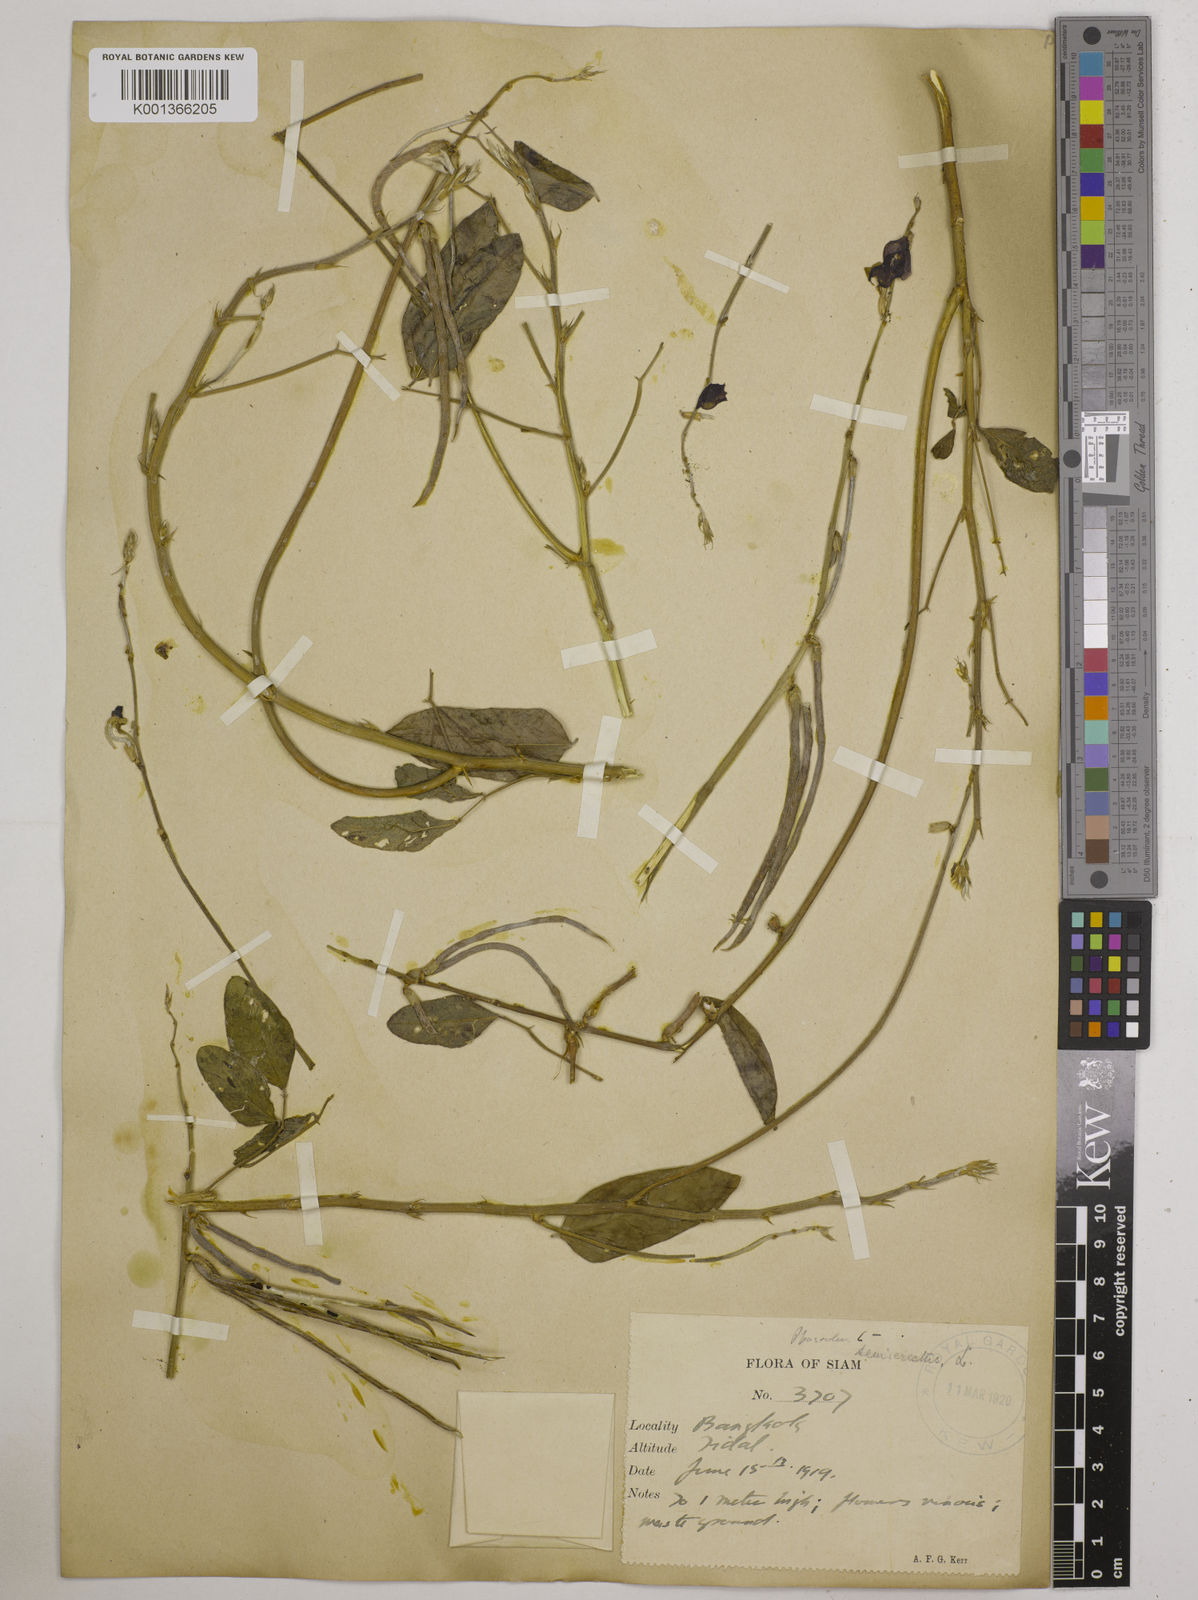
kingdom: Plantae
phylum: Tracheophyta
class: Magnoliopsida
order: Fabales
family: Fabaceae
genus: Macroptilium
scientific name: Macroptilium lathyroides
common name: Wild bushbean
